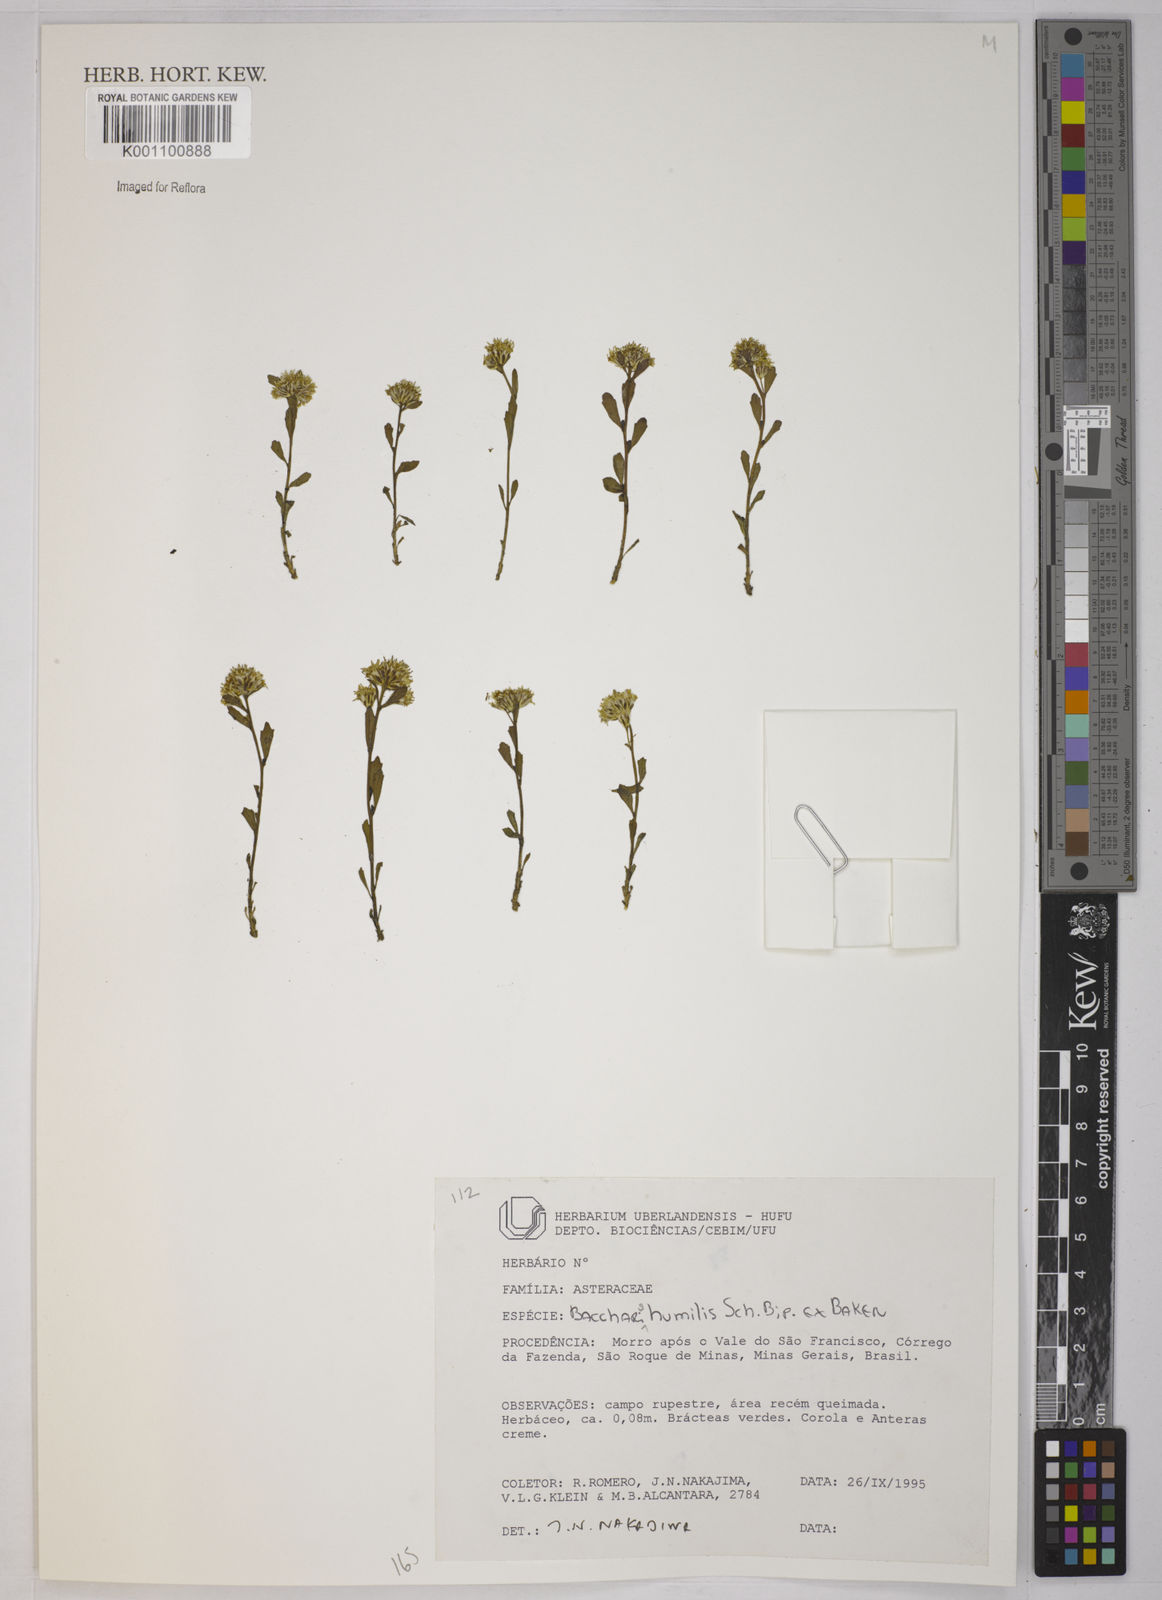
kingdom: Plantae
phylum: Tracheophyta
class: Magnoliopsida
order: Asterales
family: Asteraceae
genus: Baccharis
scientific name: Baccharis humilis
